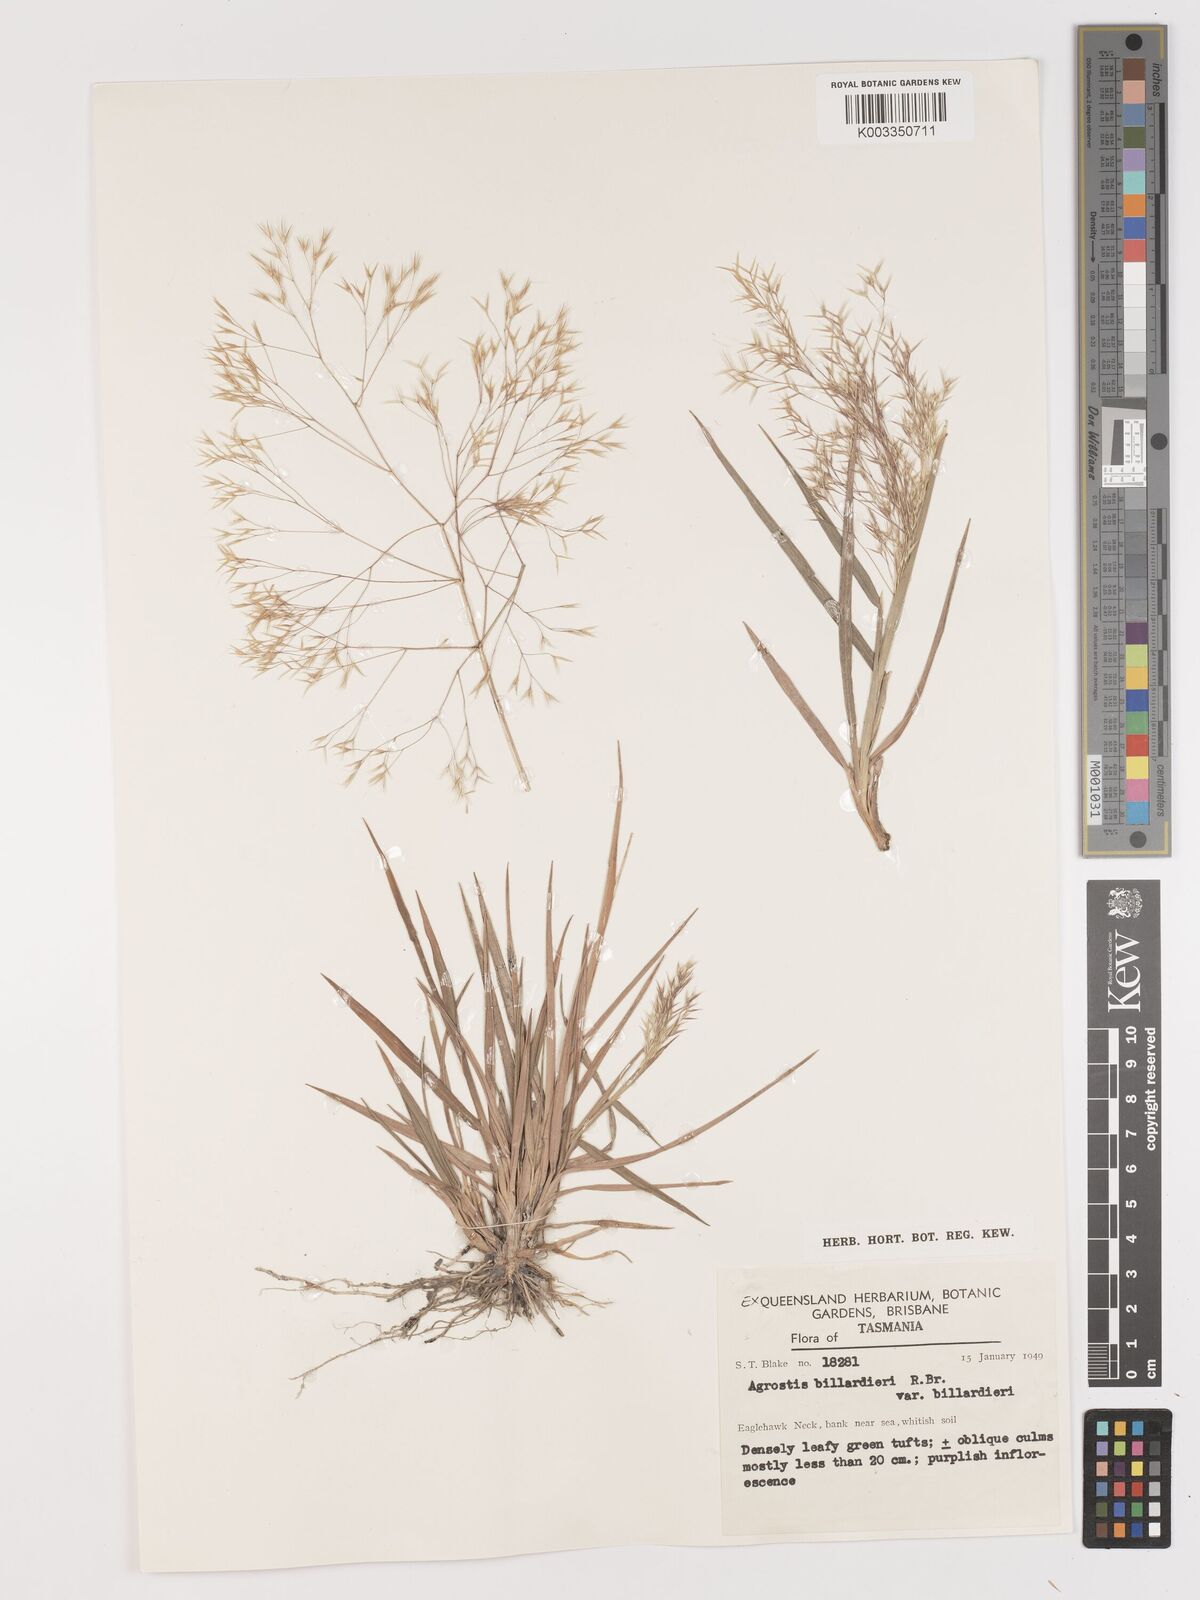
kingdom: Plantae
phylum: Tracheophyta
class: Liliopsida
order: Poales
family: Poaceae
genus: Lachnagrostis
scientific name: Lachnagrostis billardierei
